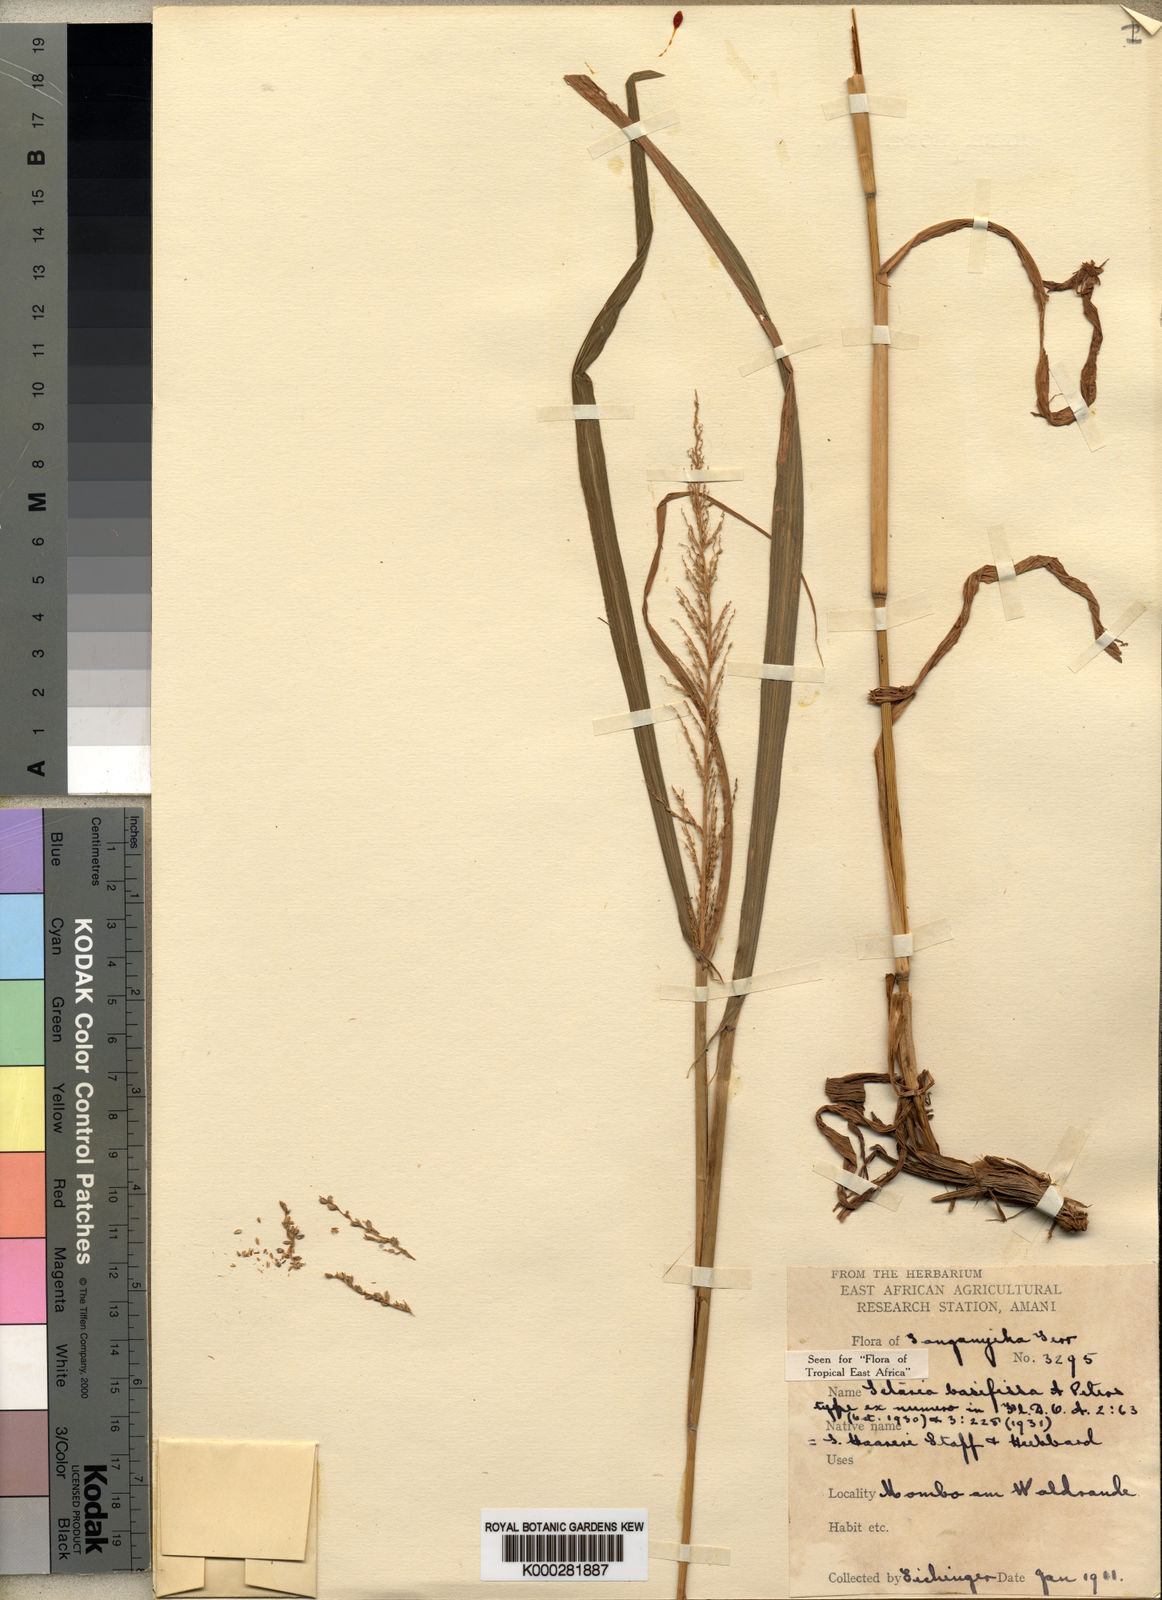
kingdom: Plantae
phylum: Tracheophyta
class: Liliopsida
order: Poales
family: Poaceae
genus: Setaria
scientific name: Setaria appendiculata
